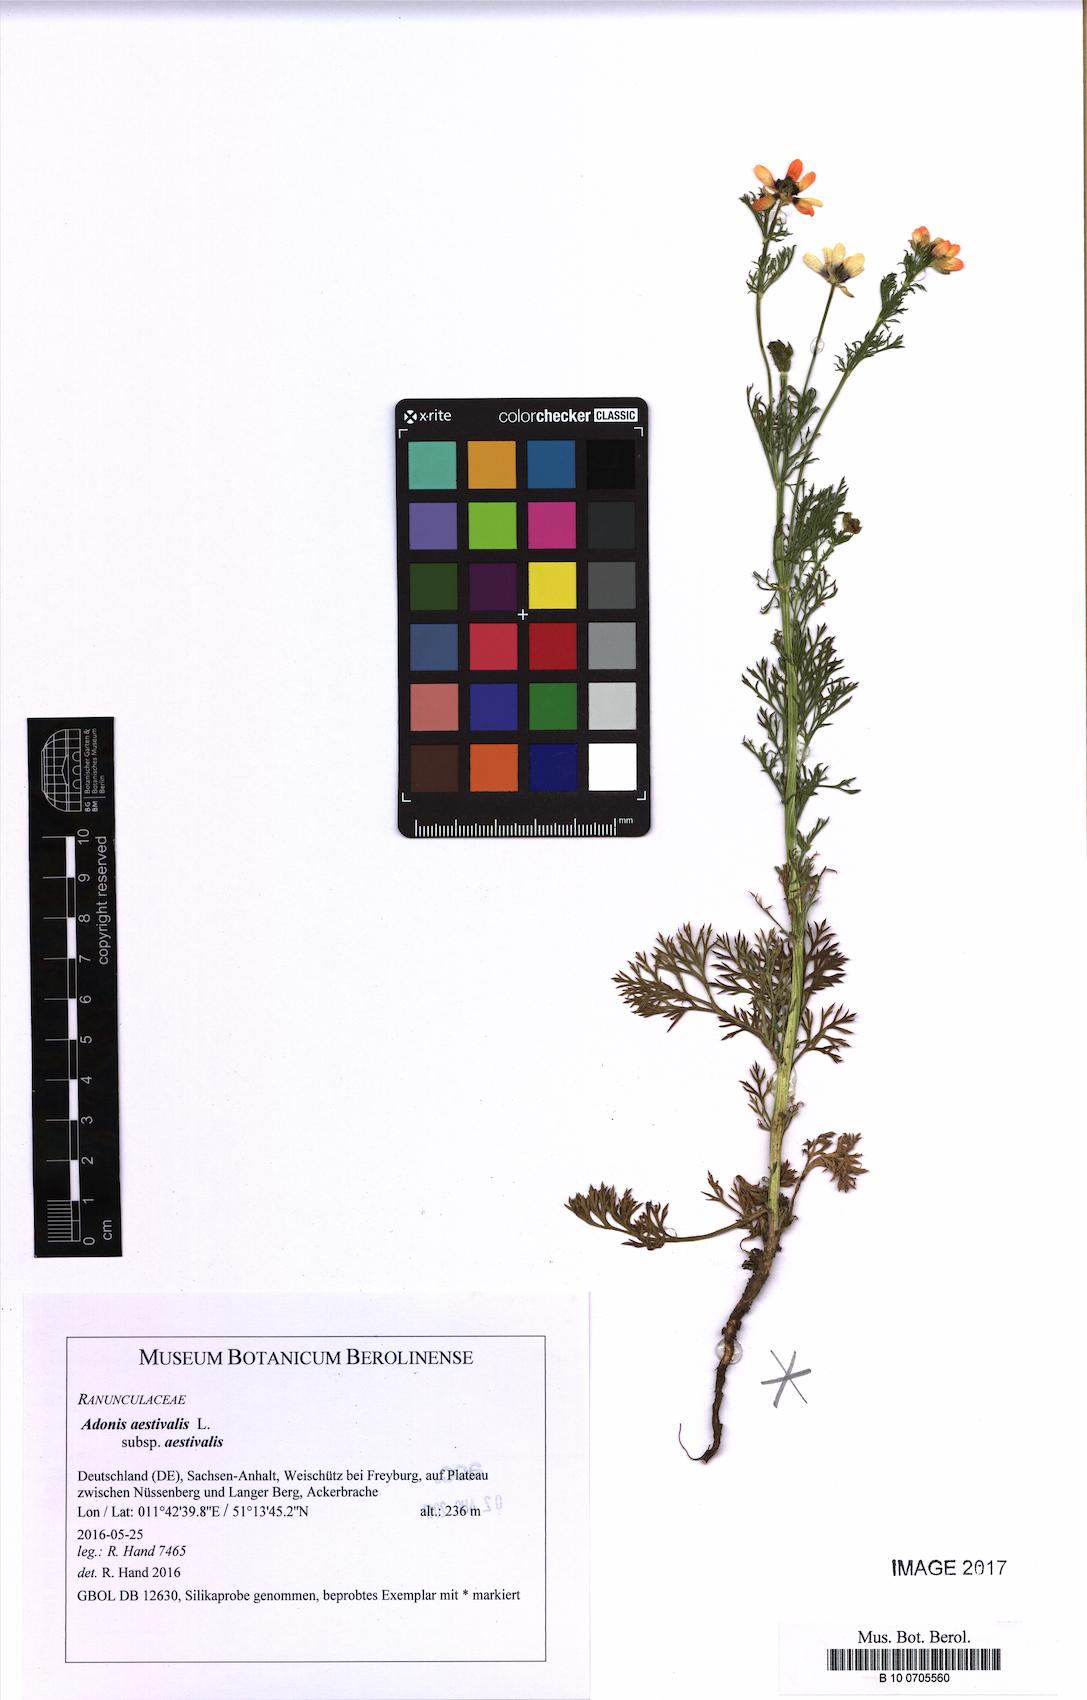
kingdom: Plantae
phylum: Tracheophyta
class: Magnoliopsida
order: Ranunculales
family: Ranunculaceae
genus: Adonis
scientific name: Adonis aestivalis
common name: Summer pheasant's-eye
